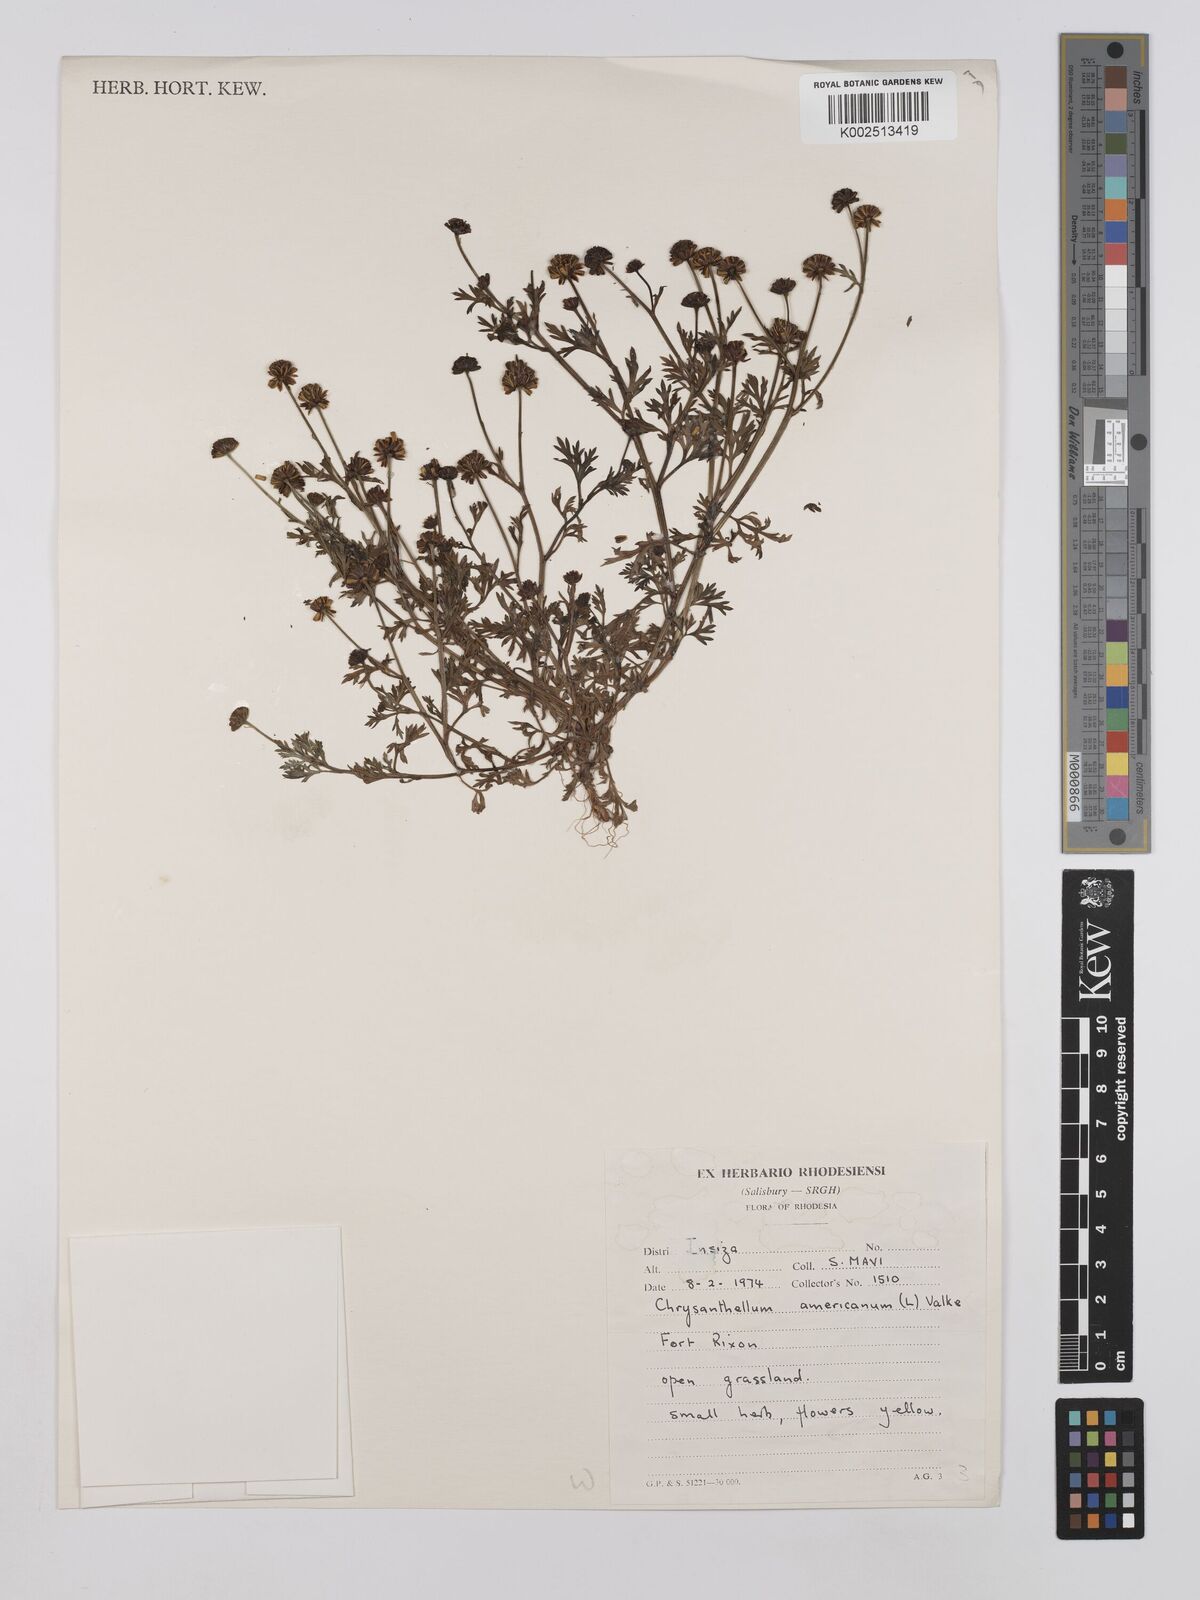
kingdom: Plantae
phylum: Tracheophyta
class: Magnoliopsida
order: Asterales
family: Asteraceae
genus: Chrysanthellum
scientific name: Chrysanthellum indicum
